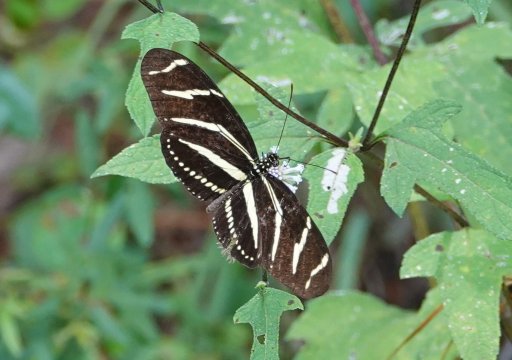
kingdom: Animalia
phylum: Arthropoda
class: Insecta
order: Lepidoptera
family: Nymphalidae
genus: Heliconius
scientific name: Heliconius charithonia
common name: Zebra Longwing
